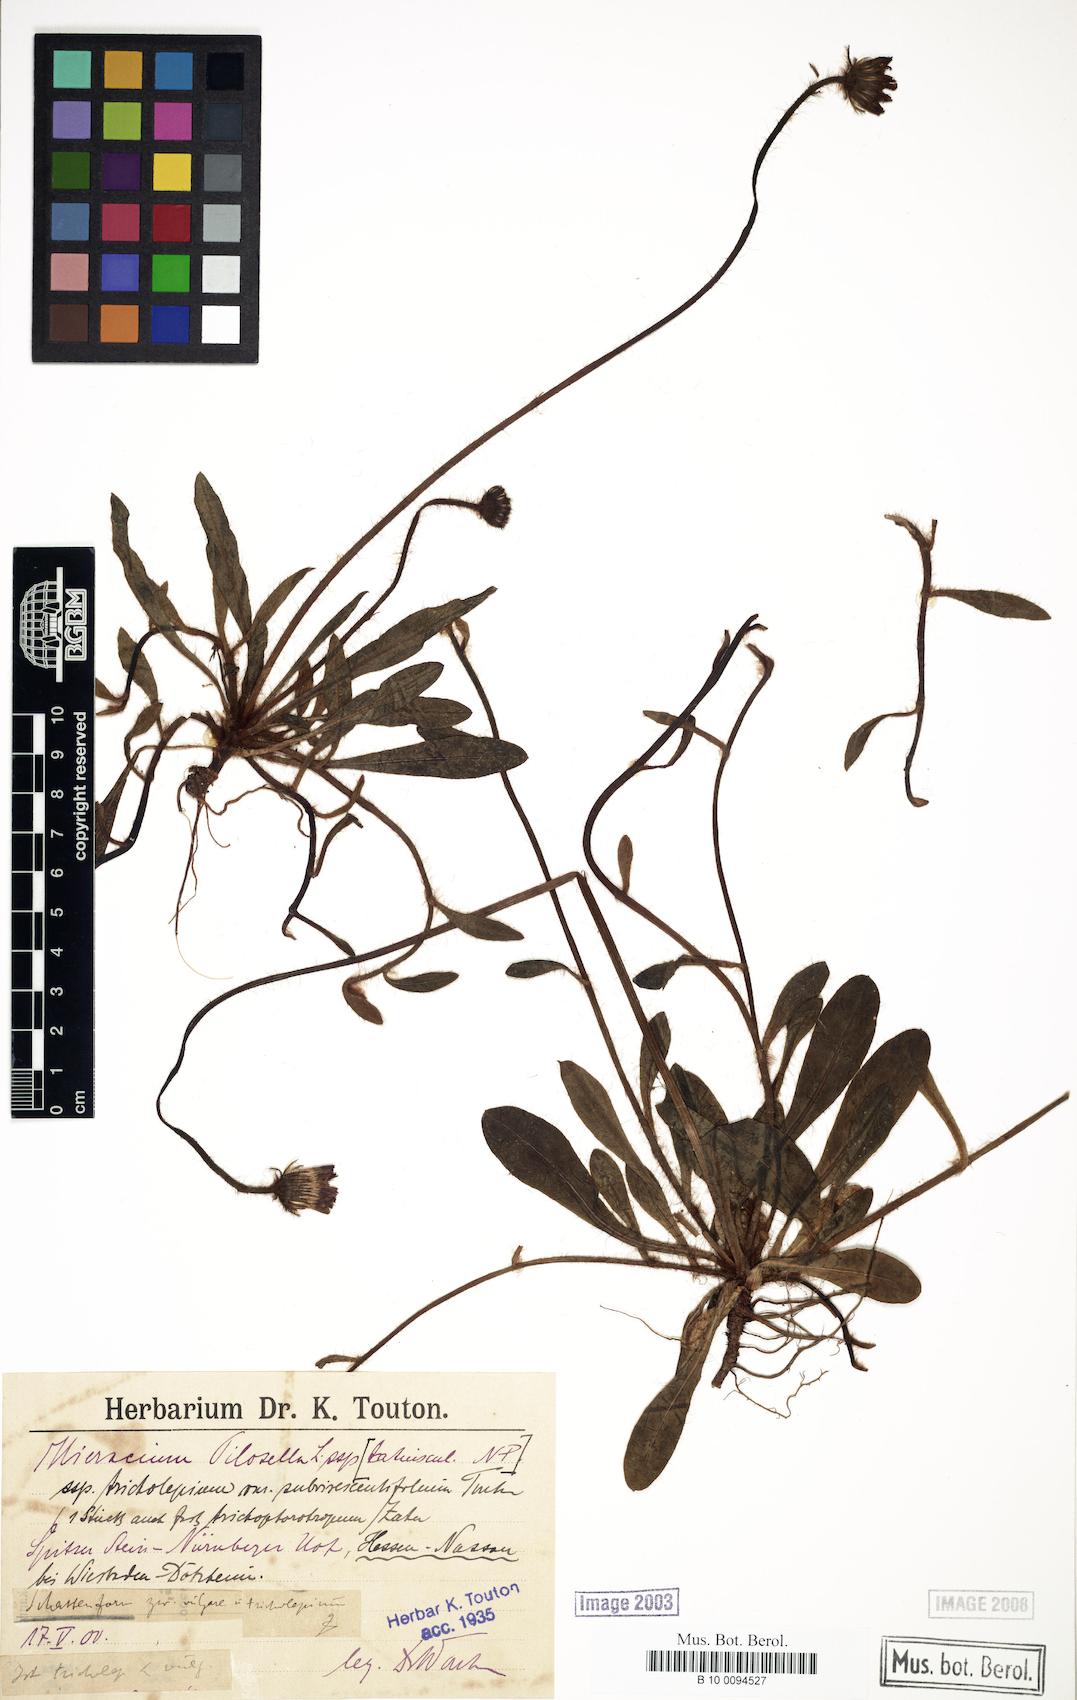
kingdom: Plantae
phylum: Tracheophyta
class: Magnoliopsida
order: Asterales
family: Asteraceae
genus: Pilosella
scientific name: Pilosella officinarum
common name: Mouse-ear hawkweed
